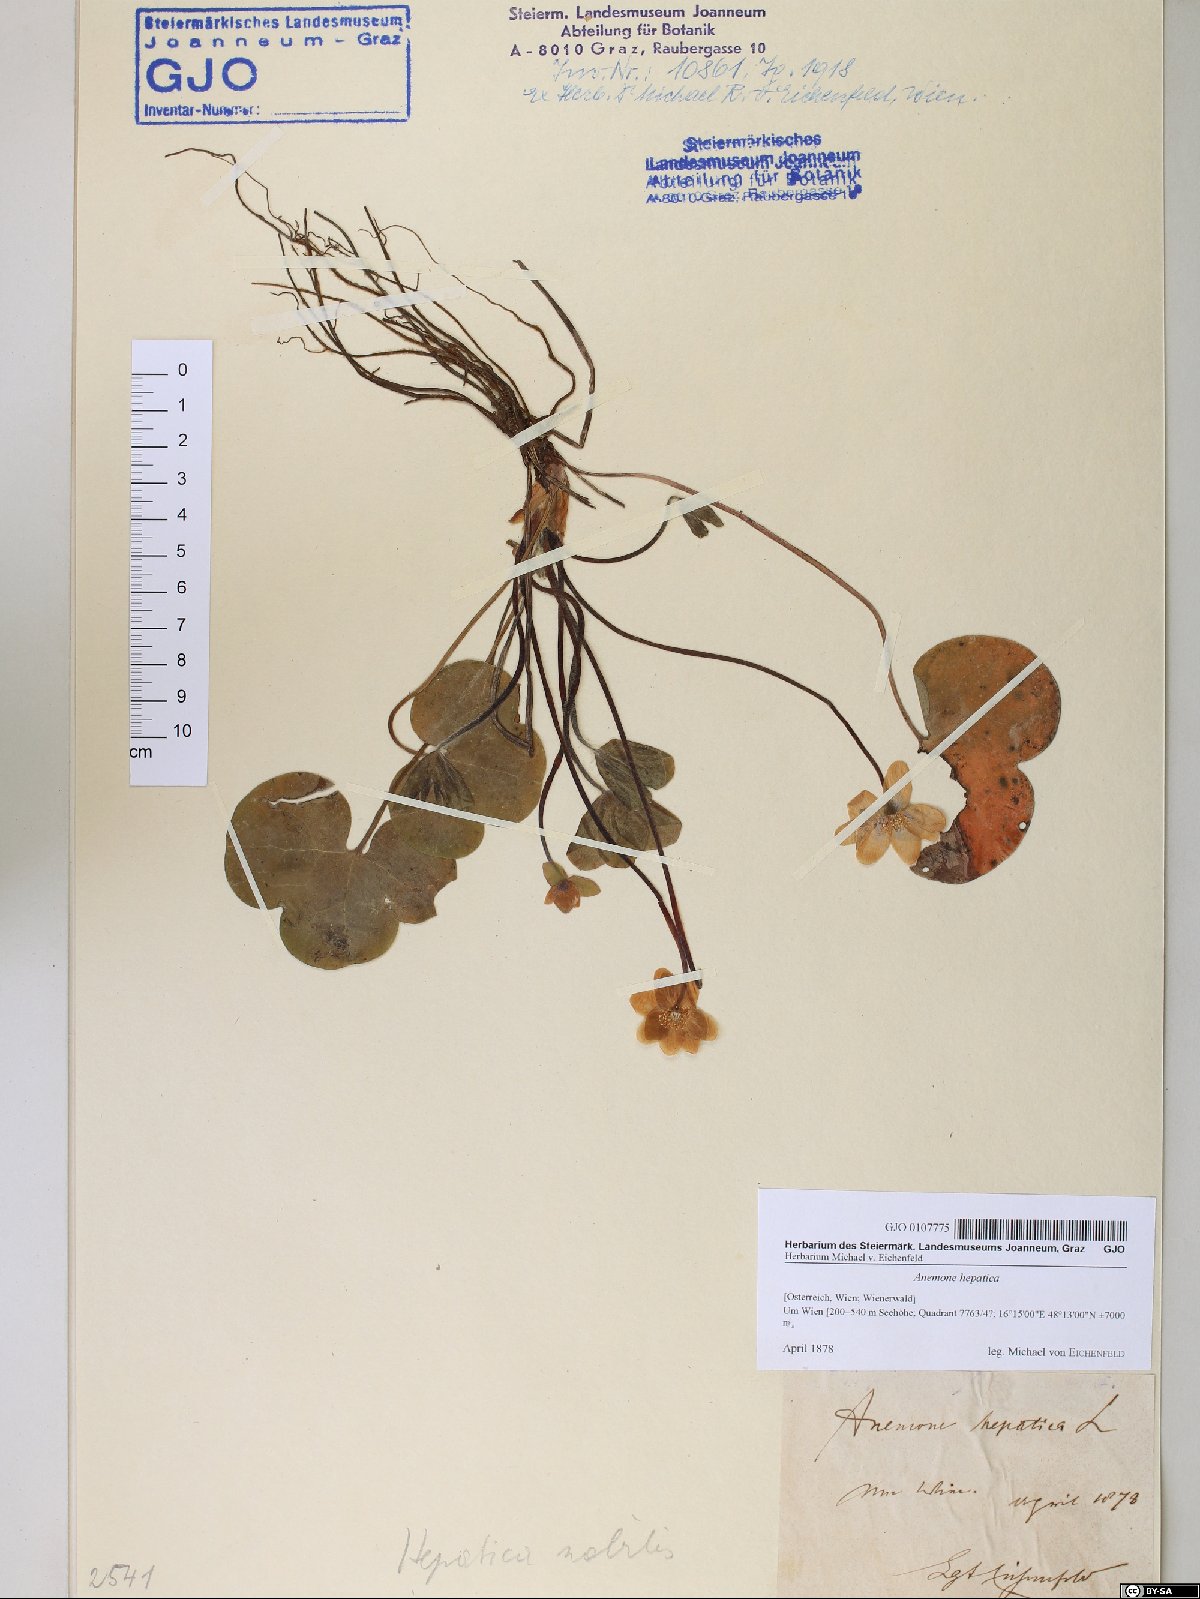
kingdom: Plantae
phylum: Tracheophyta
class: Magnoliopsida
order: Ranunculales
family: Ranunculaceae
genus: Hepatica
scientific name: Hepatica nobilis
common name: Liverleaf
